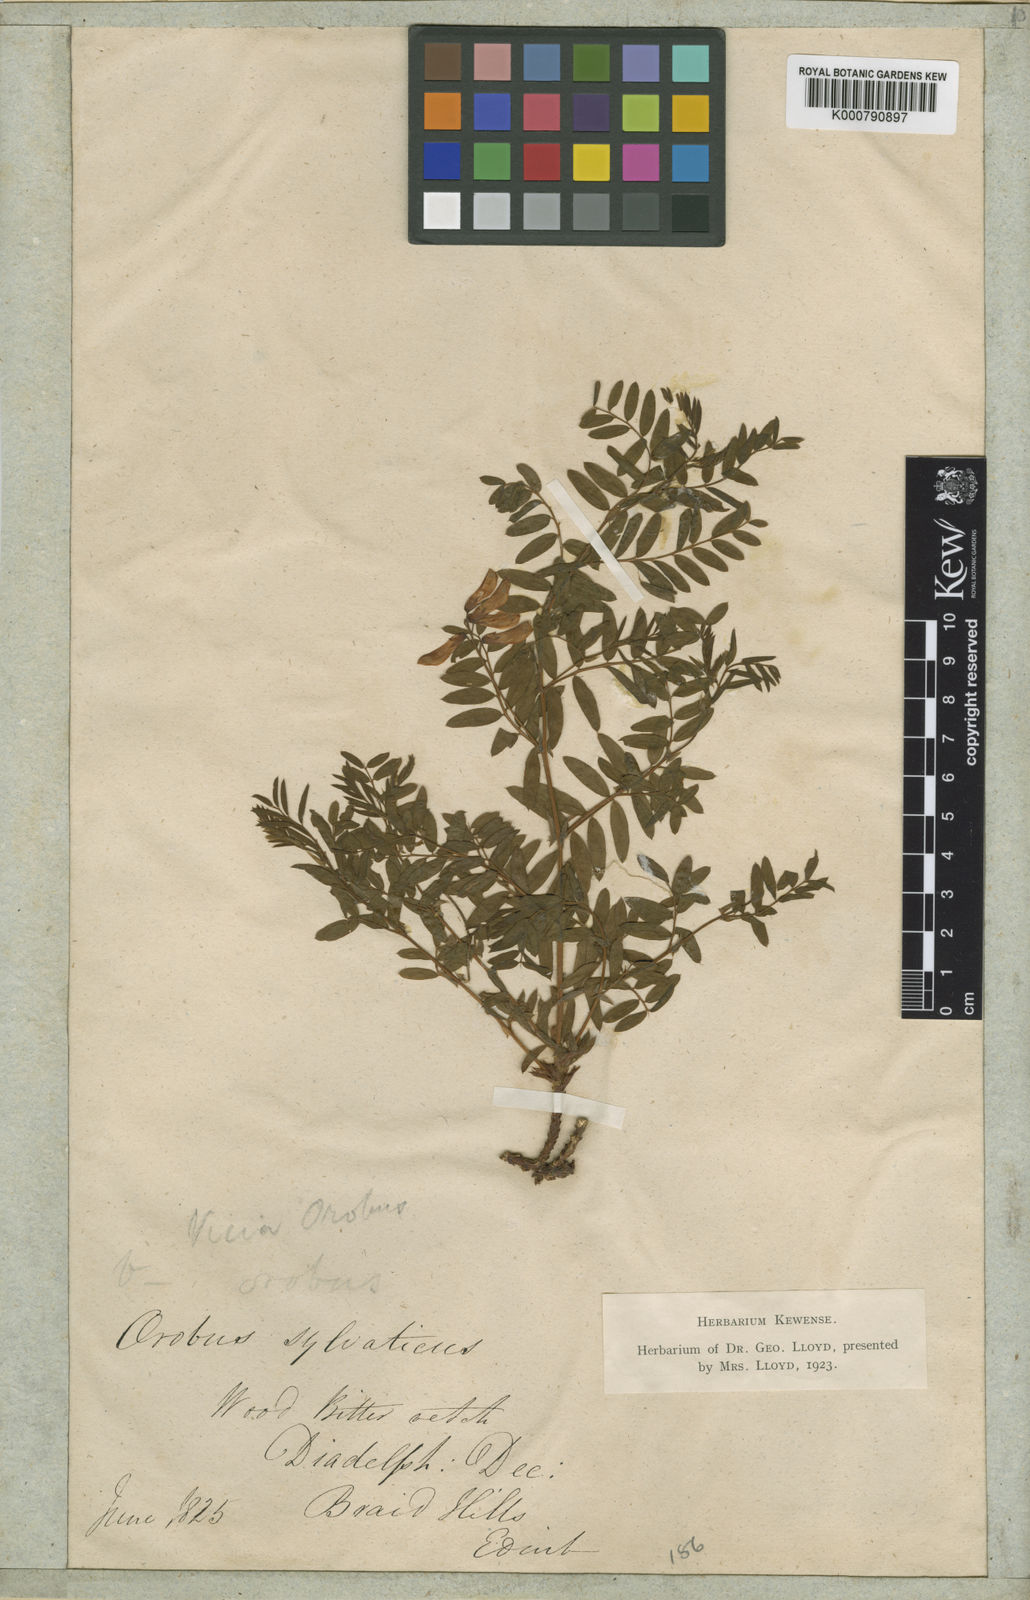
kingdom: Plantae
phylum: Tracheophyta
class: Magnoliopsida
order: Fabales
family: Fabaceae
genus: Vicia
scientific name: Vicia orobus
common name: Wood bitter-vetch
